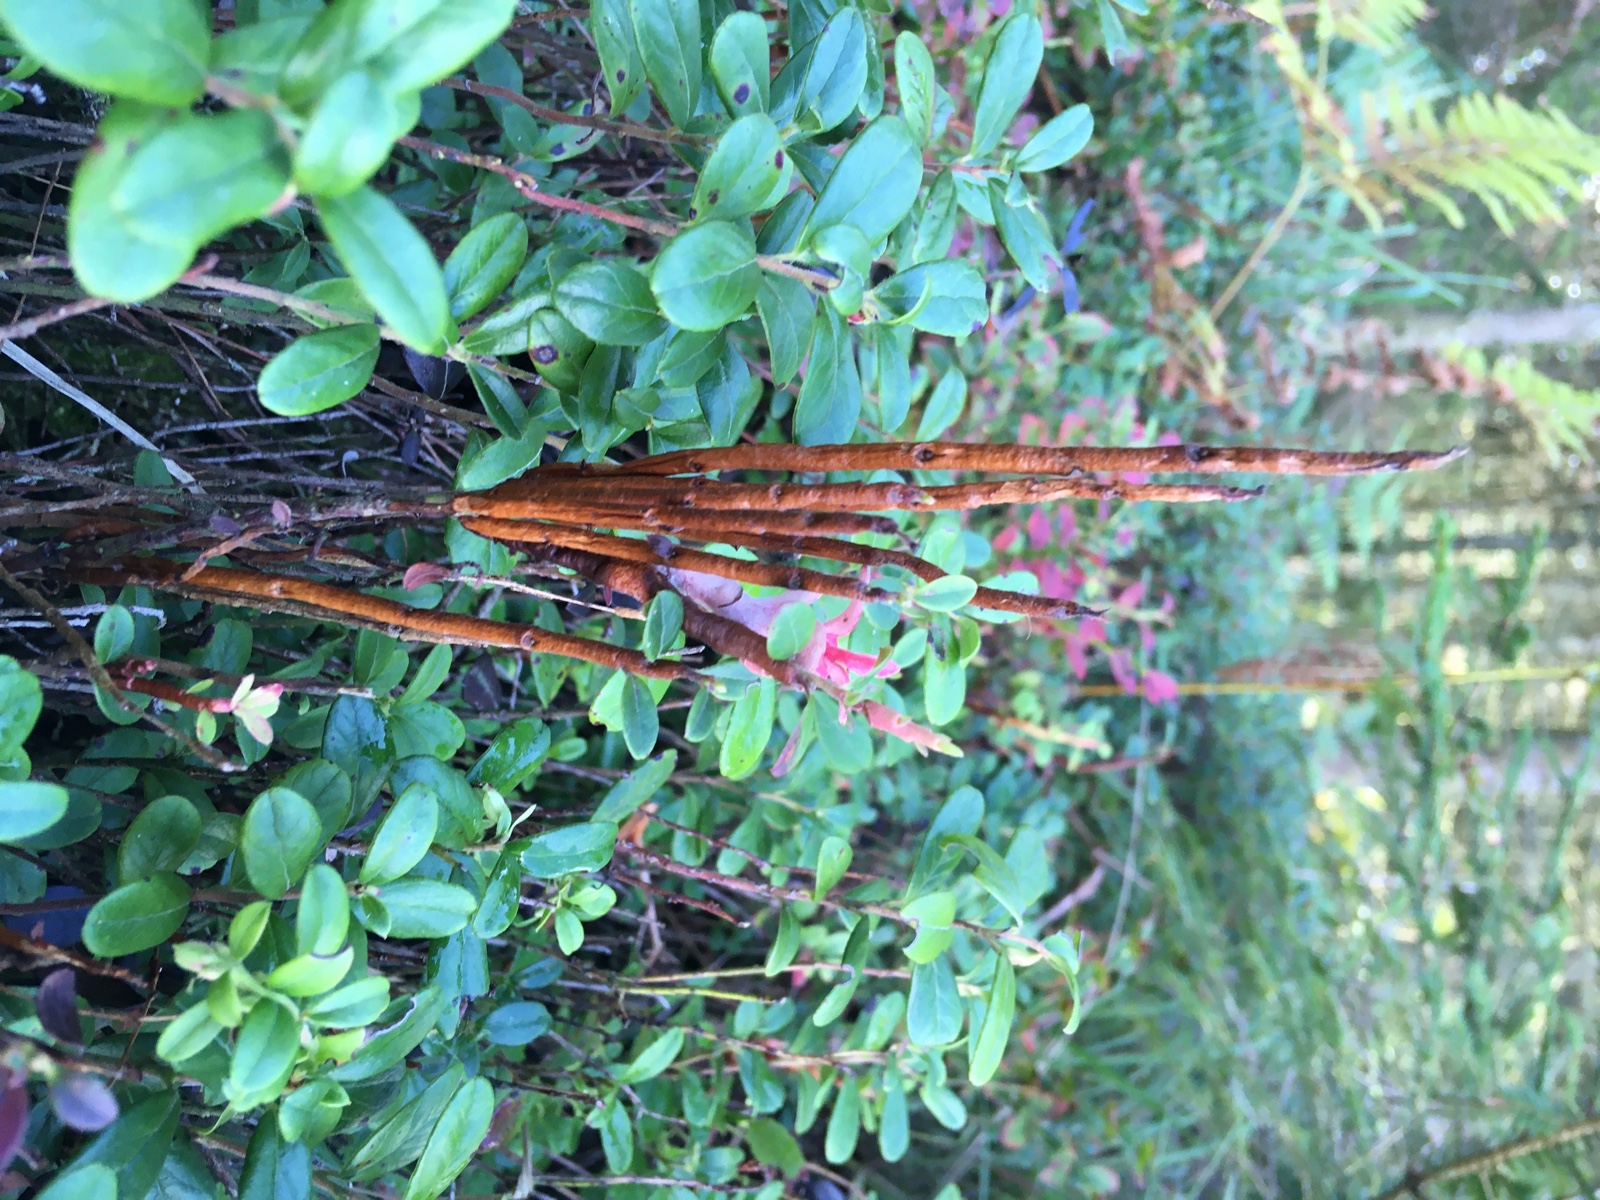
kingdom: Fungi
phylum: Basidiomycota
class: Pucciniomycetes
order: Pucciniales
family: Pucciniastraceae
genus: Calyptospora
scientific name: Calyptospora columnaris
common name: Huckleberry broom rust fungus
